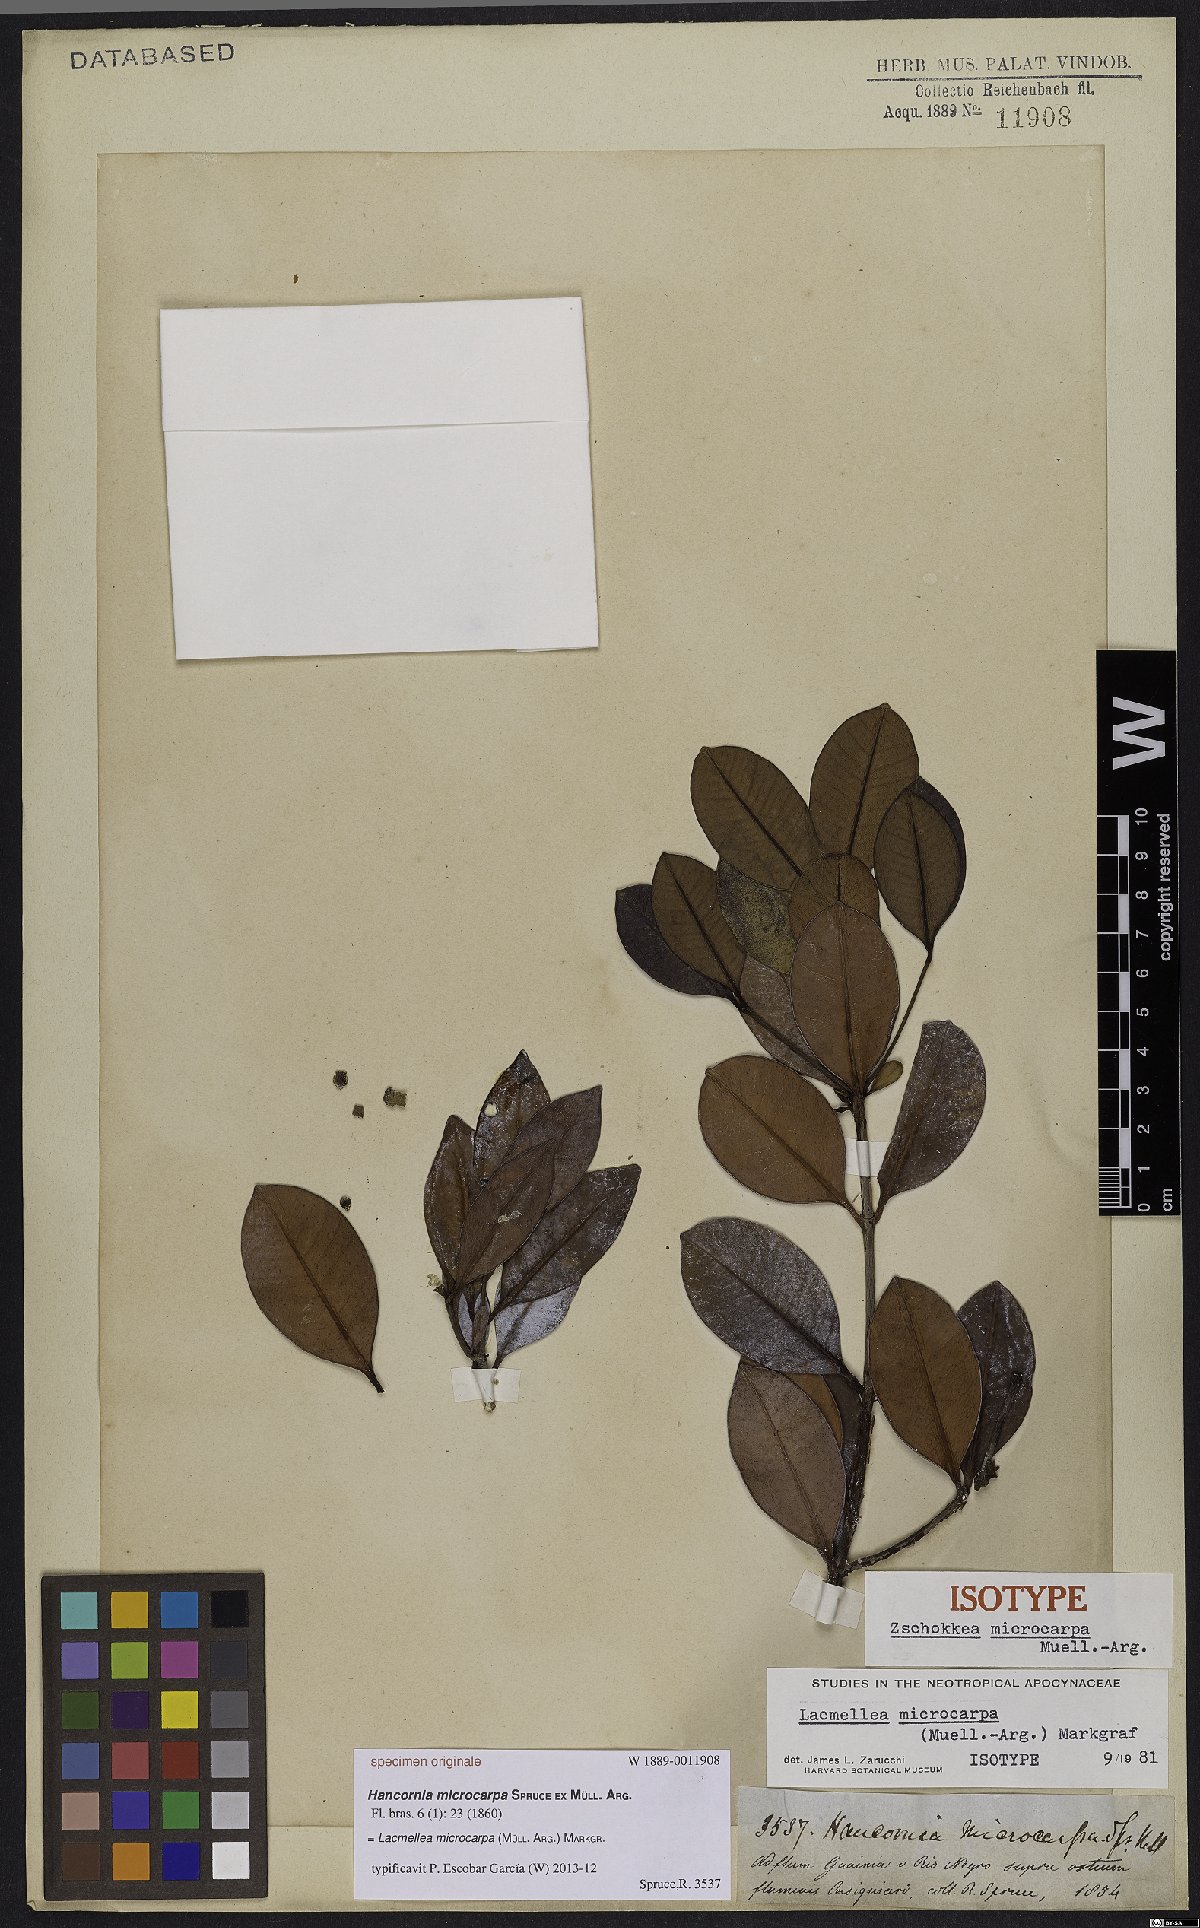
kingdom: Plantae
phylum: Tracheophyta
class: Magnoliopsida
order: Gentianales
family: Apocynaceae
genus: Lacmellea
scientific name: Lacmellea microcarpa
